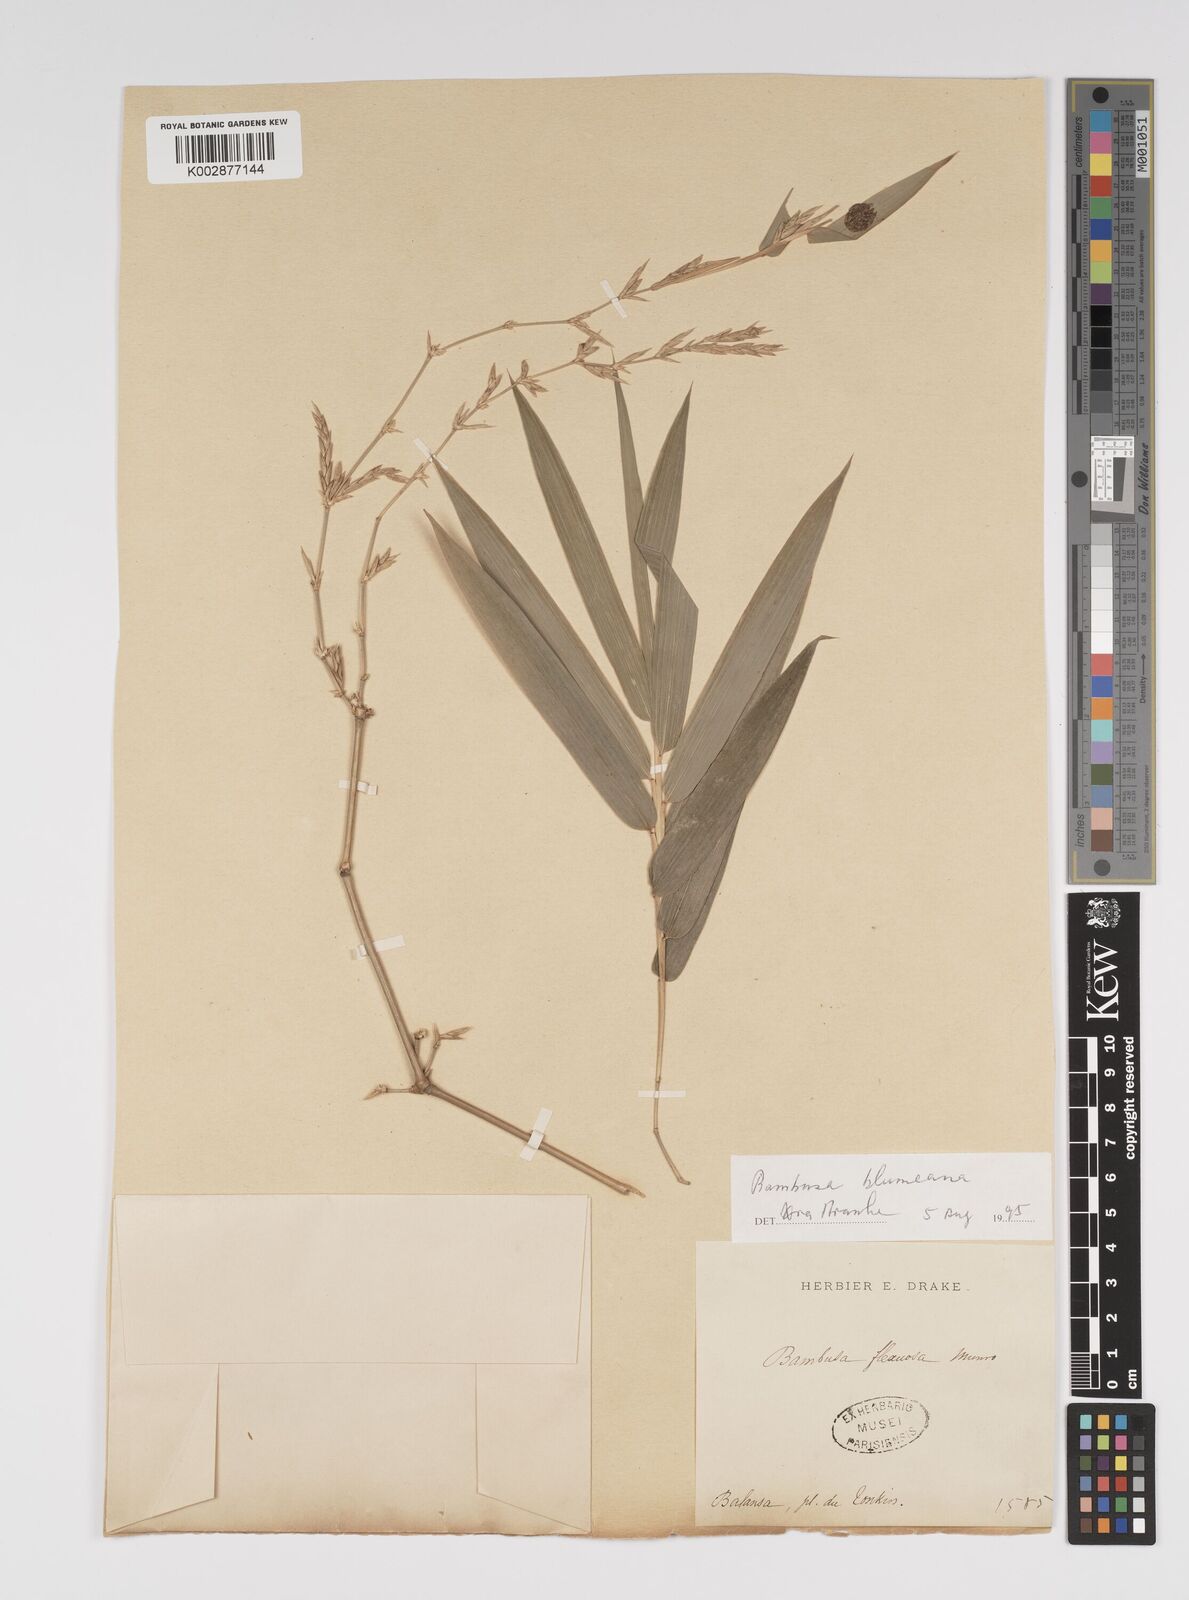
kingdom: Plantae
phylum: Tracheophyta
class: Liliopsida
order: Poales
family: Poaceae
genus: Bambusa
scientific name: Bambusa
